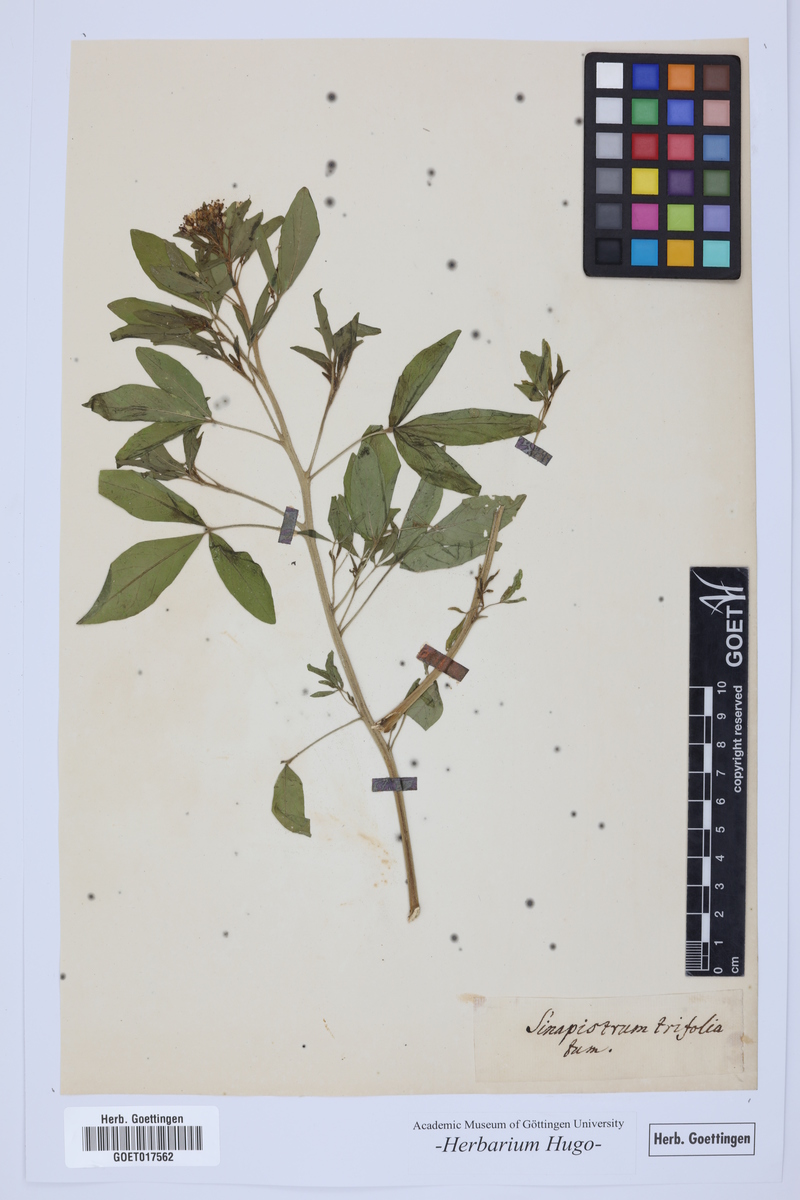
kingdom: Plantae
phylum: Tracheophyta
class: Magnoliopsida
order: Brassicales
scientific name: Brassicales
